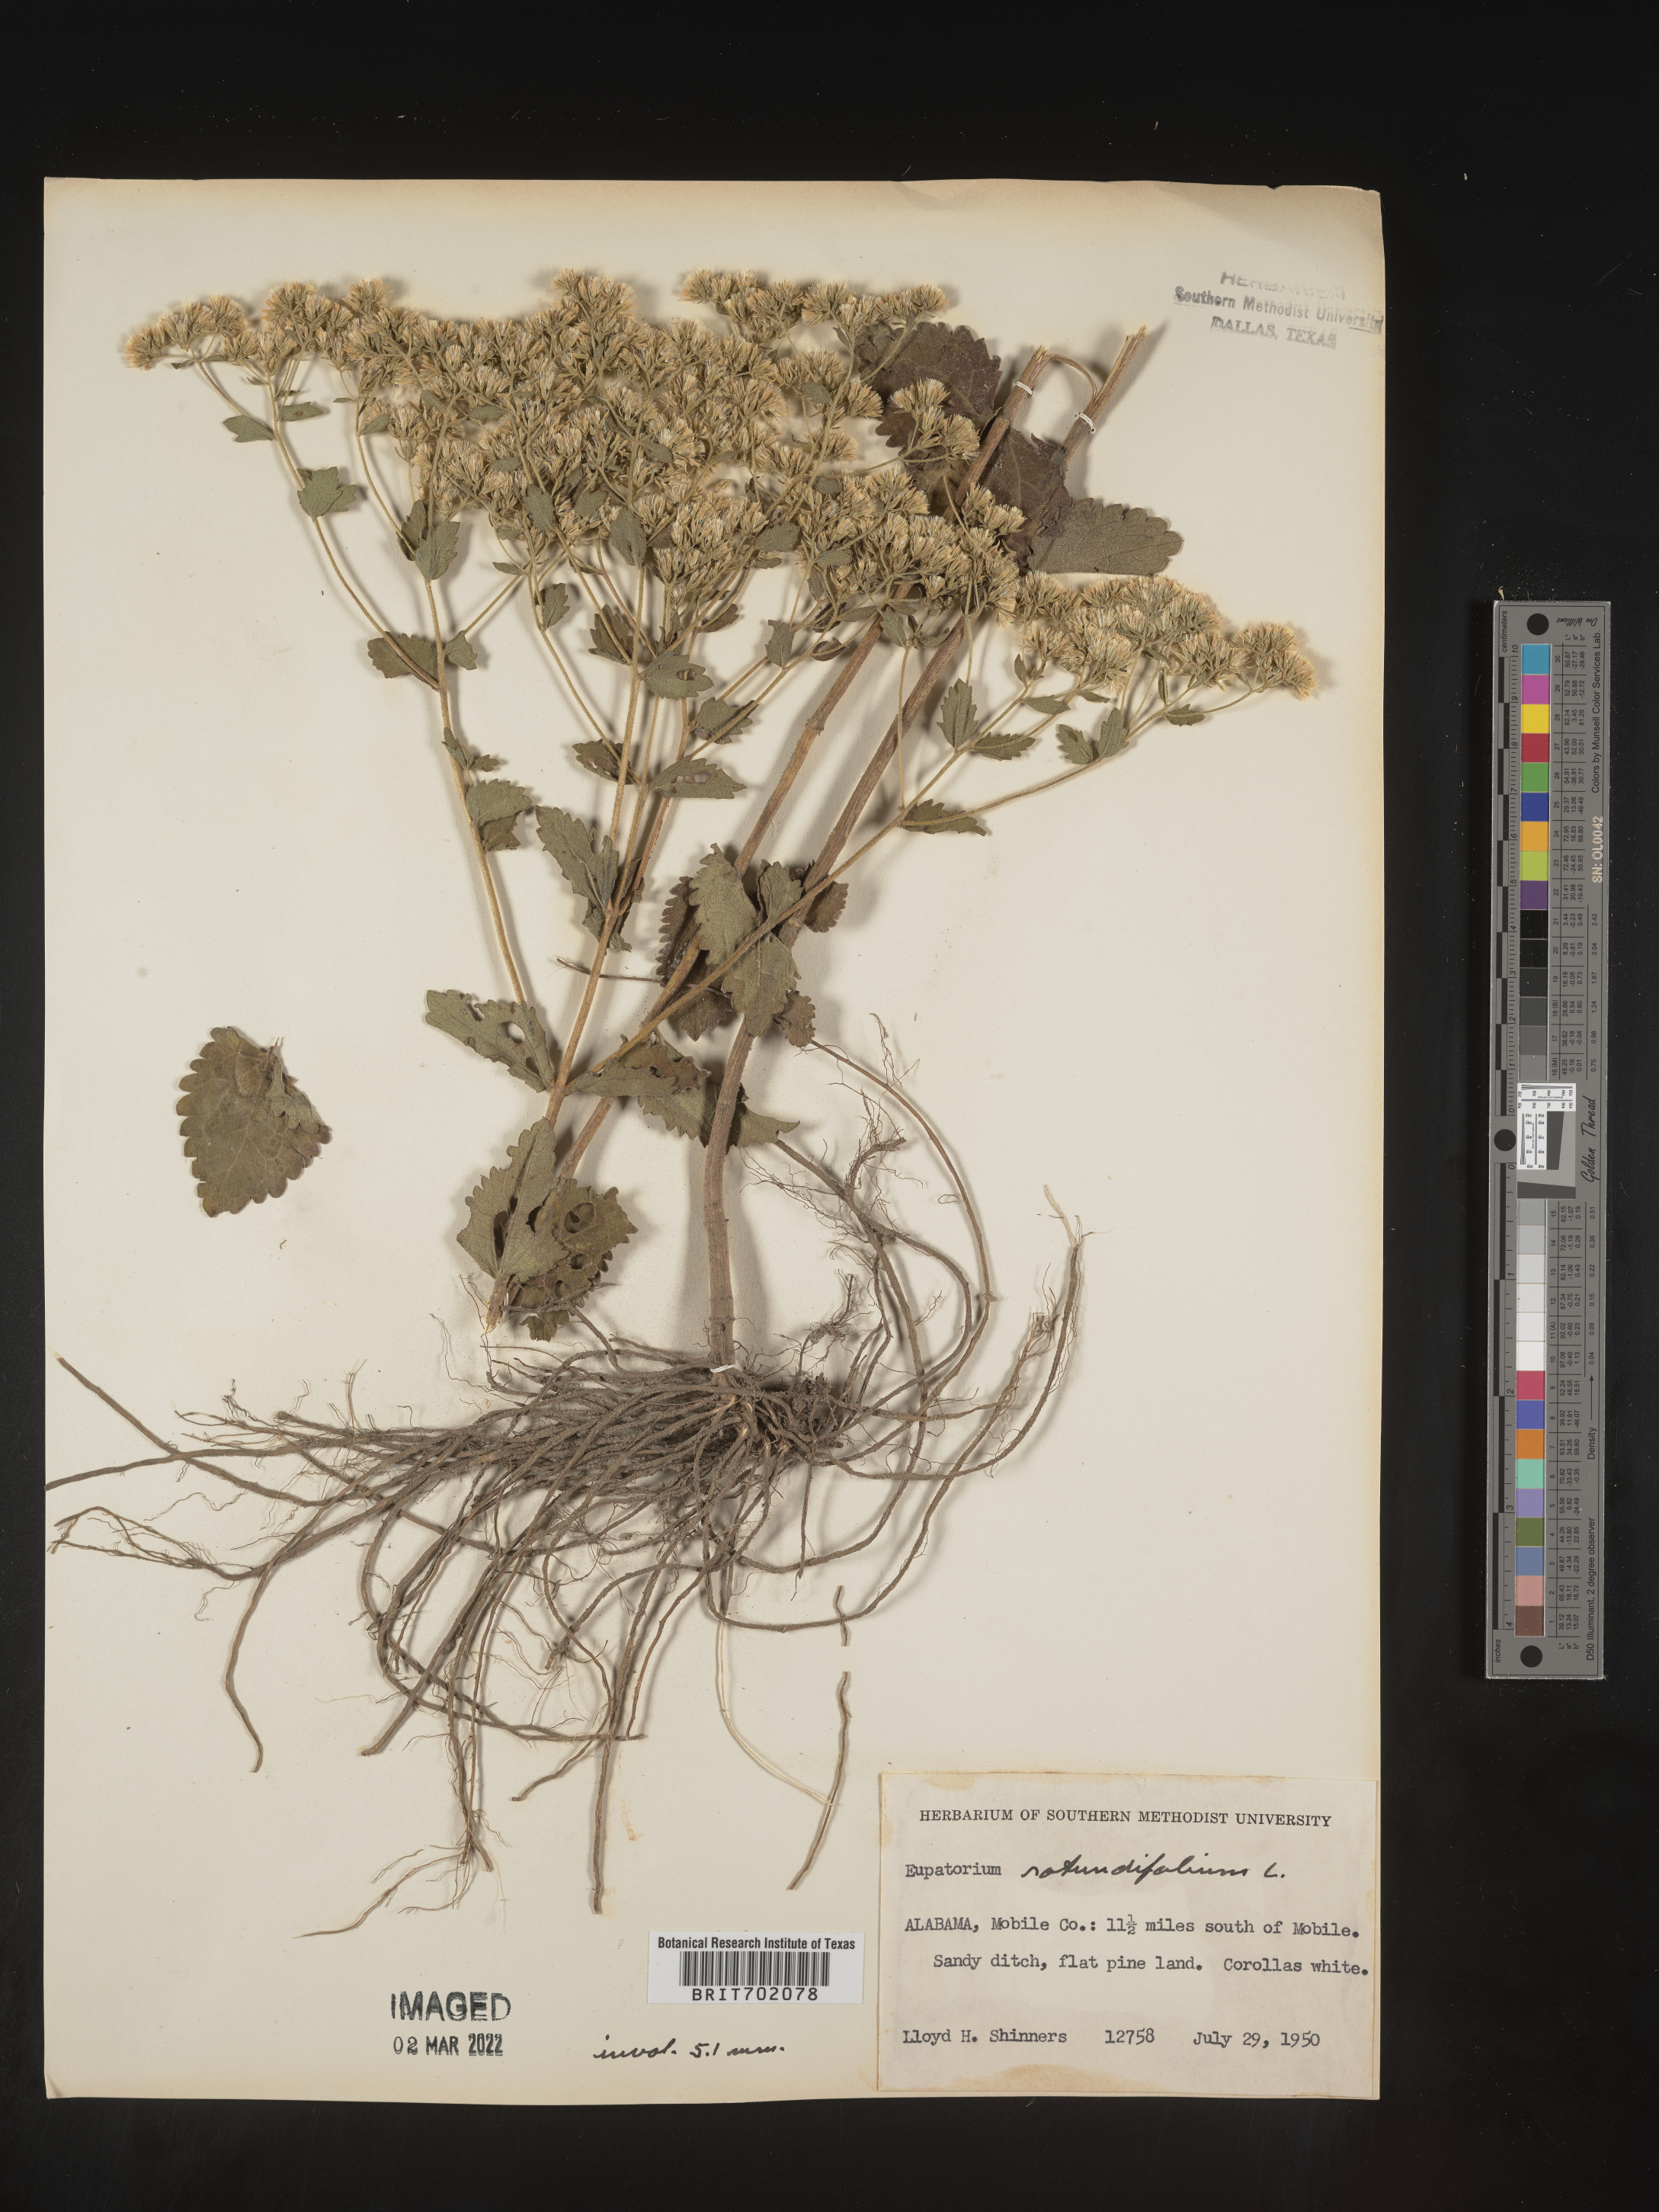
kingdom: Plantae
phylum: Tracheophyta
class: Magnoliopsida
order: Asterales
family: Asteraceae
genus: Eupatorium
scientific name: Eupatorium rotundifolium
